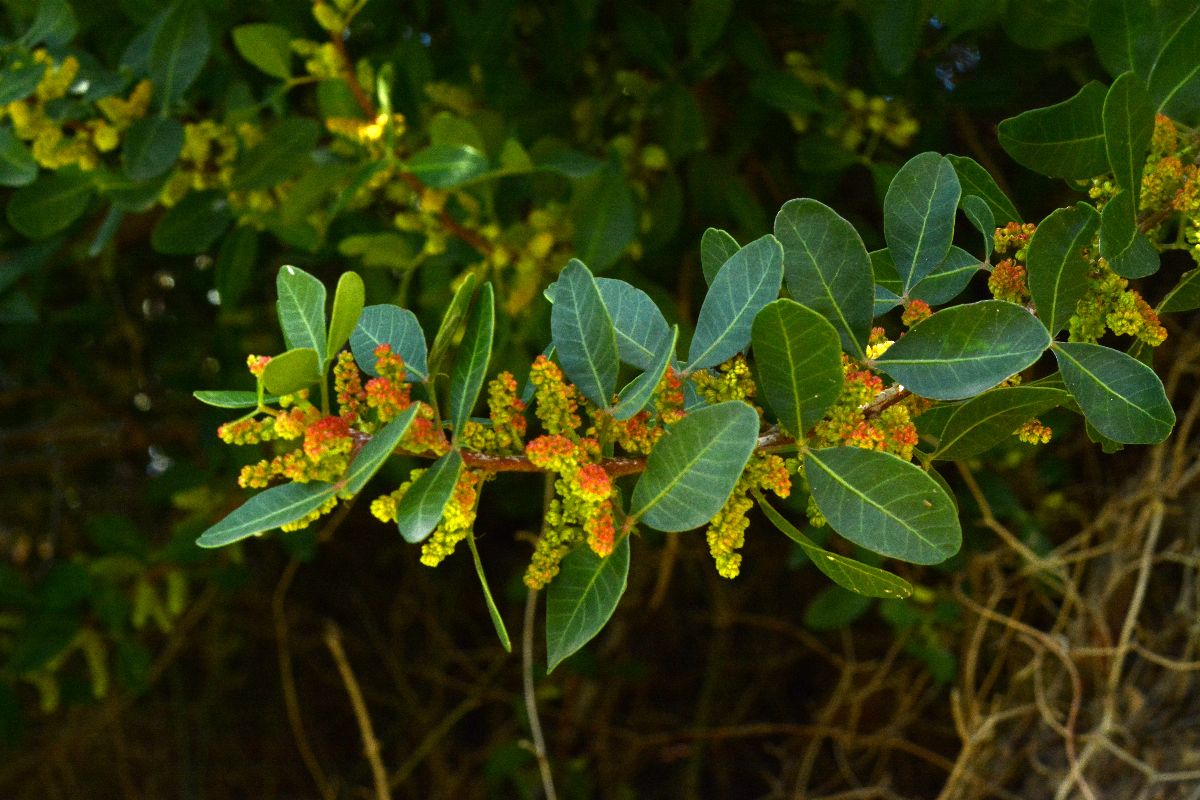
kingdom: Plantae
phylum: Tracheophyta
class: Magnoliopsida
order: Sapindales
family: Anacardiaceae
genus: Pistacia
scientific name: Pistacia lentiscus
